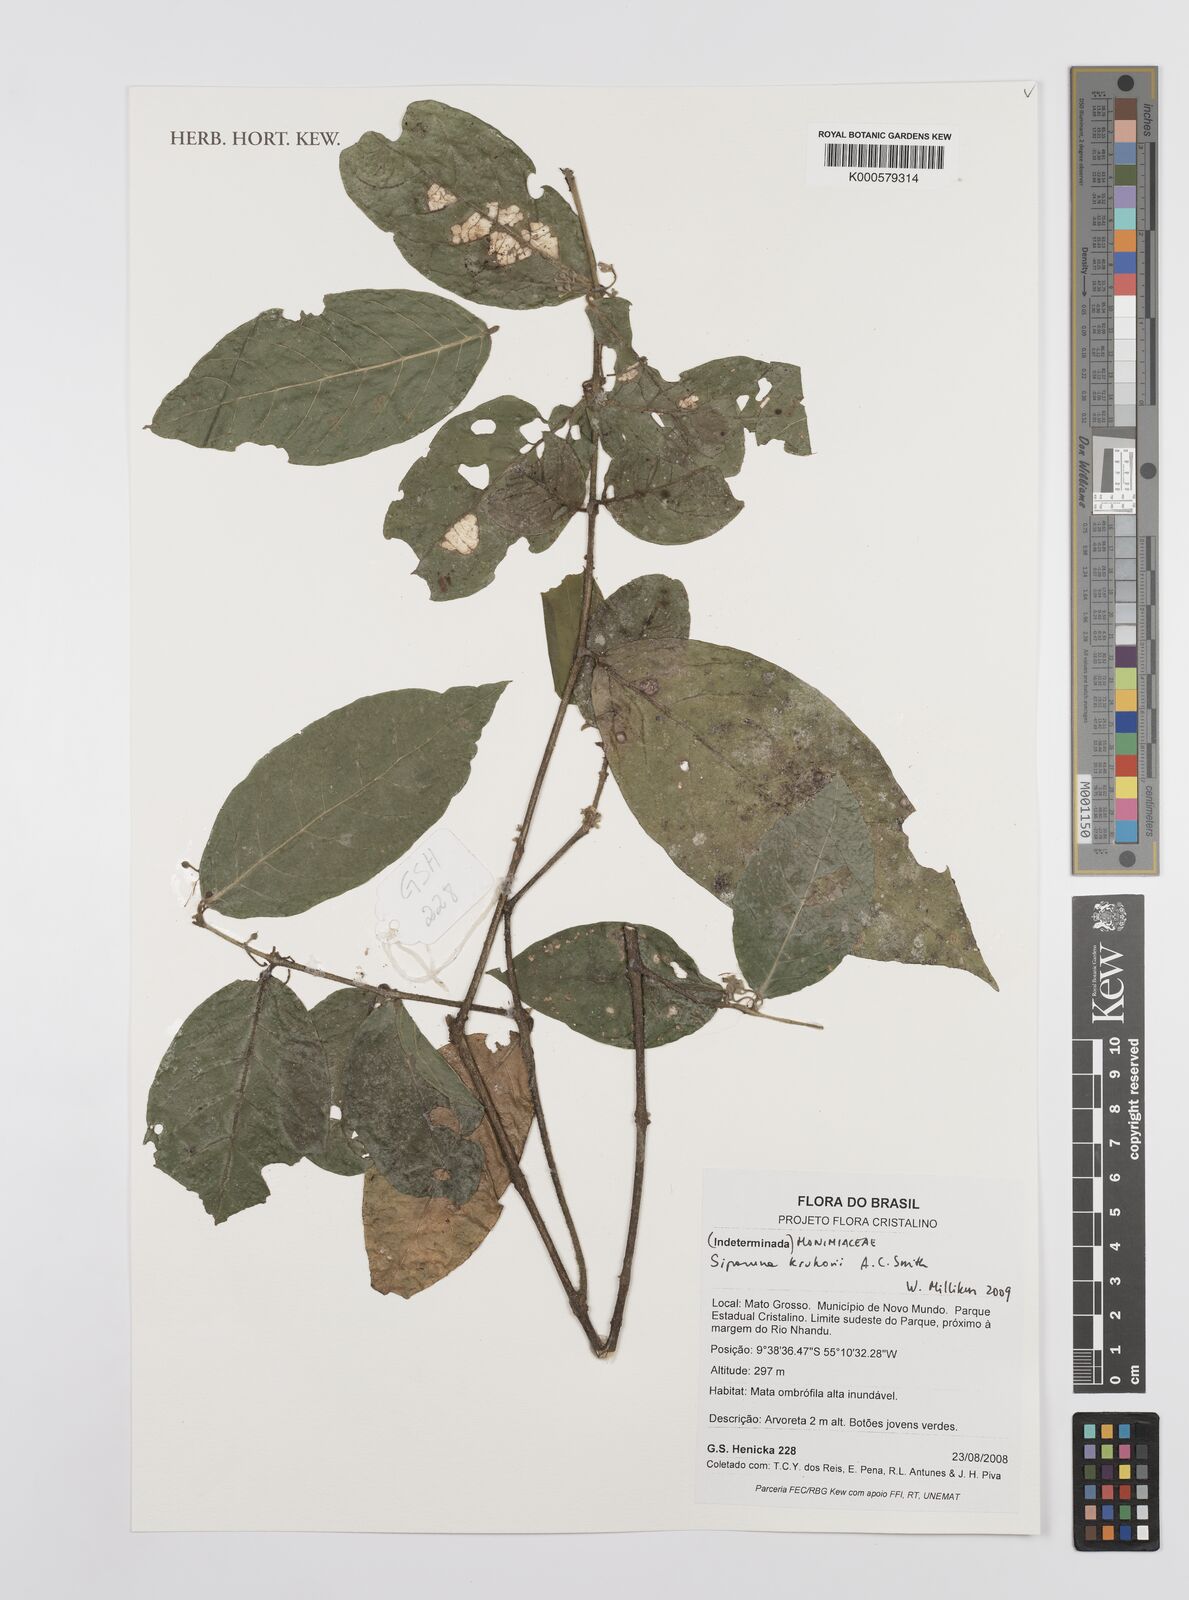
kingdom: Plantae
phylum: Tracheophyta
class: Magnoliopsida
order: Laurales
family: Siparunaceae
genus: Siparuna
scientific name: Siparuna krukovii
